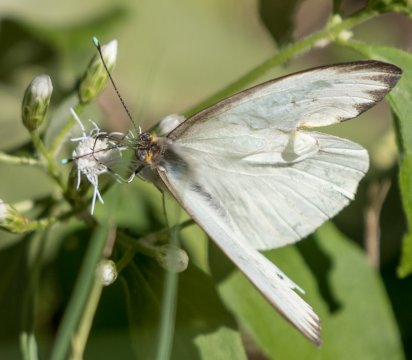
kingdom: Animalia
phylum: Arthropoda
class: Insecta
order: Lepidoptera
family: Pieridae
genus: Ascia
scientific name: Ascia monuste
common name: Great Southern White
